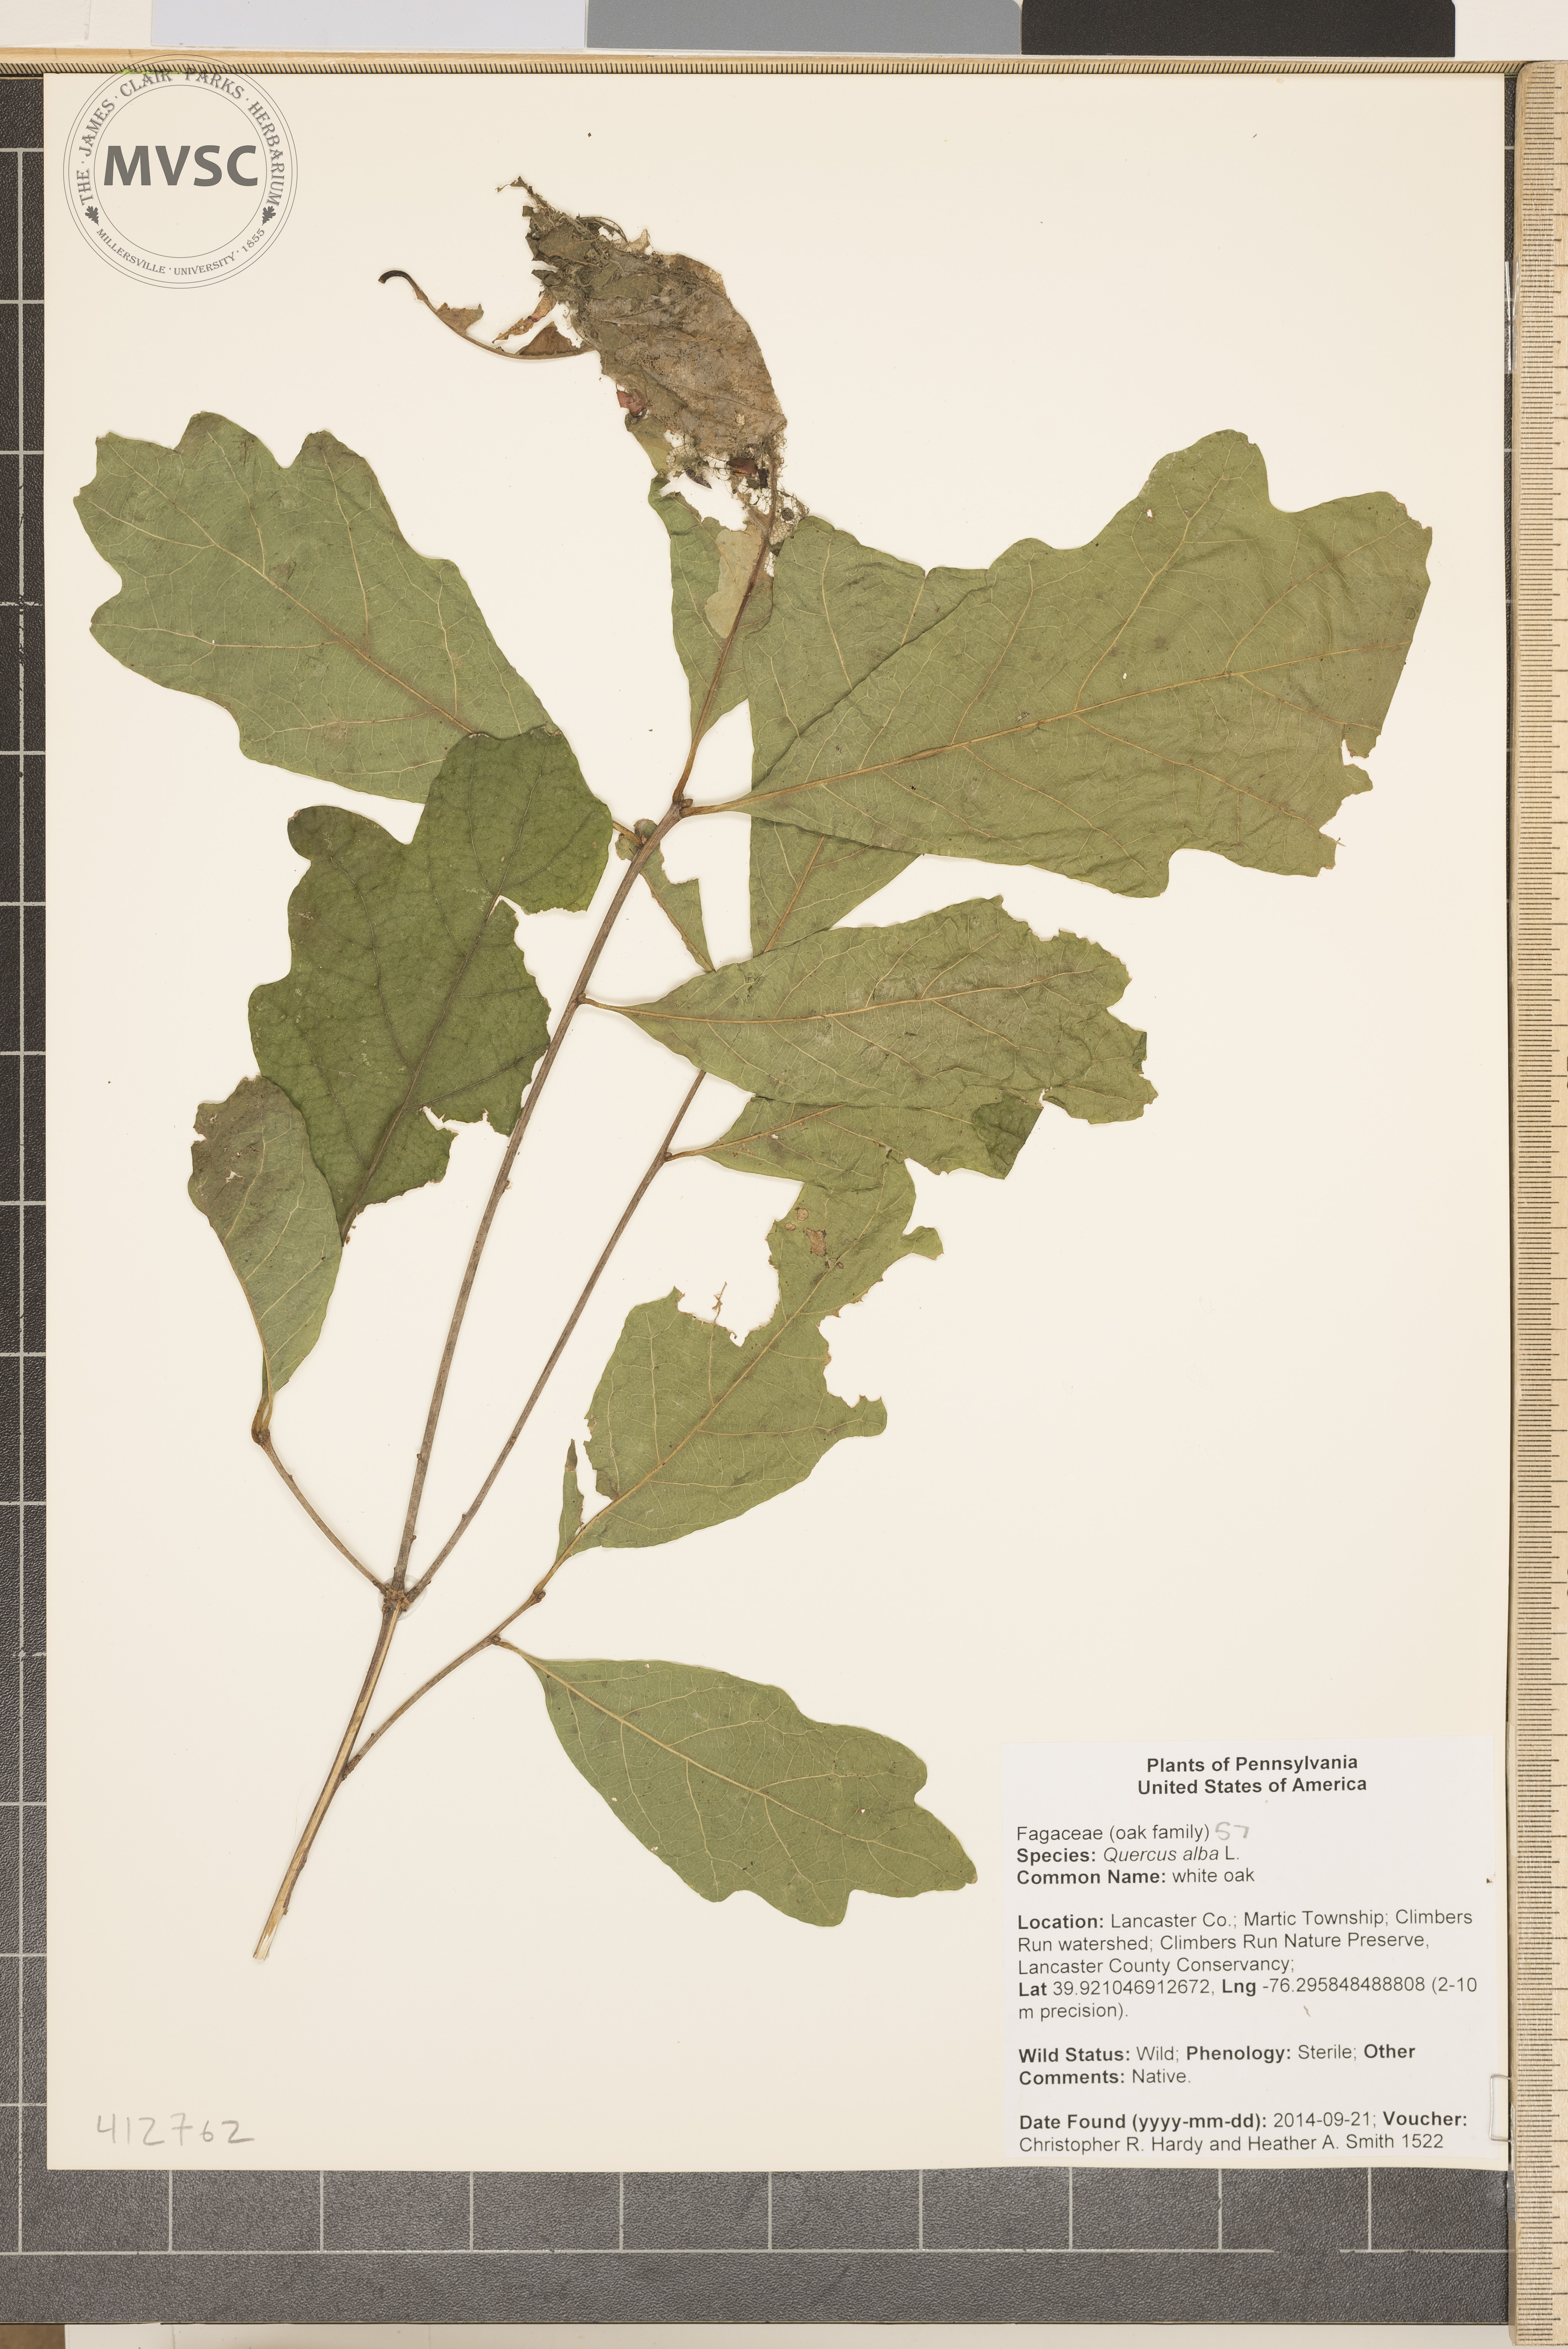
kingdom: Plantae
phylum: Tracheophyta
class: Magnoliopsida
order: Fagales
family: Fagaceae
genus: Quercus
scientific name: Quercus alba
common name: white oak
